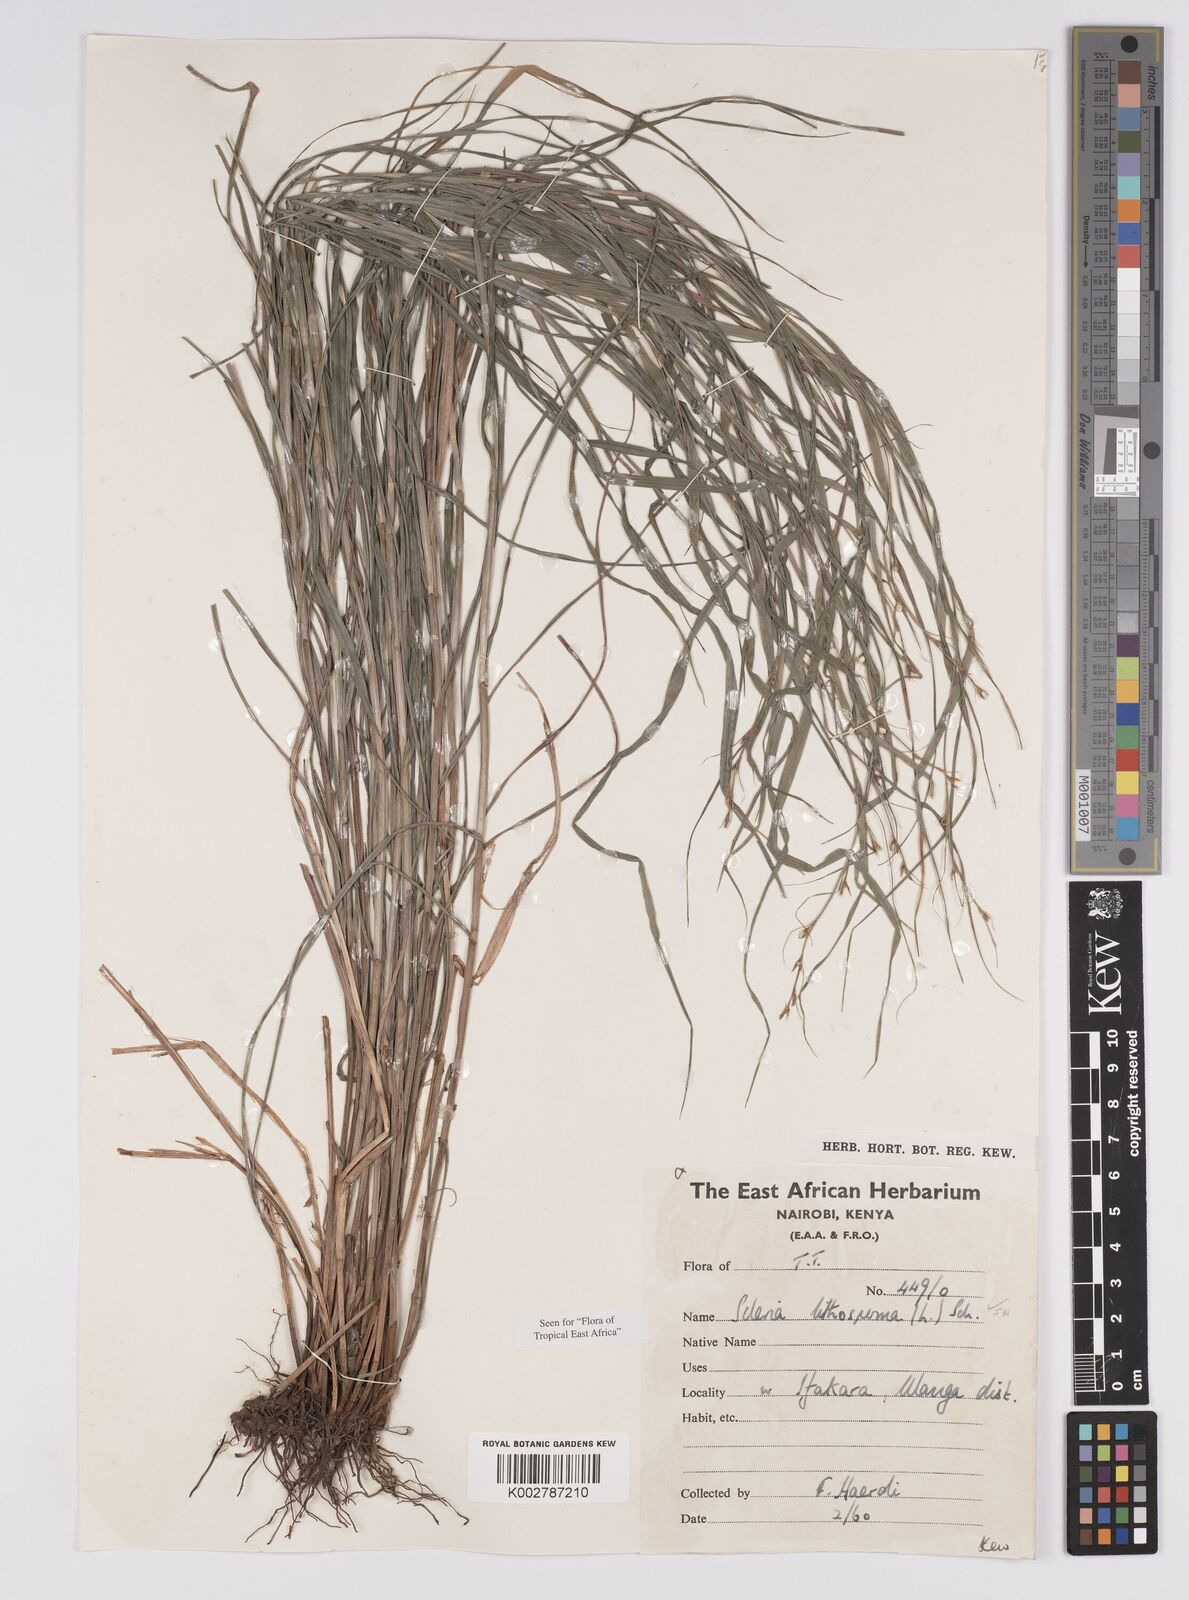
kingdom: Plantae
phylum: Tracheophyta
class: Liliopsida
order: Poales
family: Cyperaceae
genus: Scleria
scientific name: Scleria lithosperma
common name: Florida keys nut-rush
